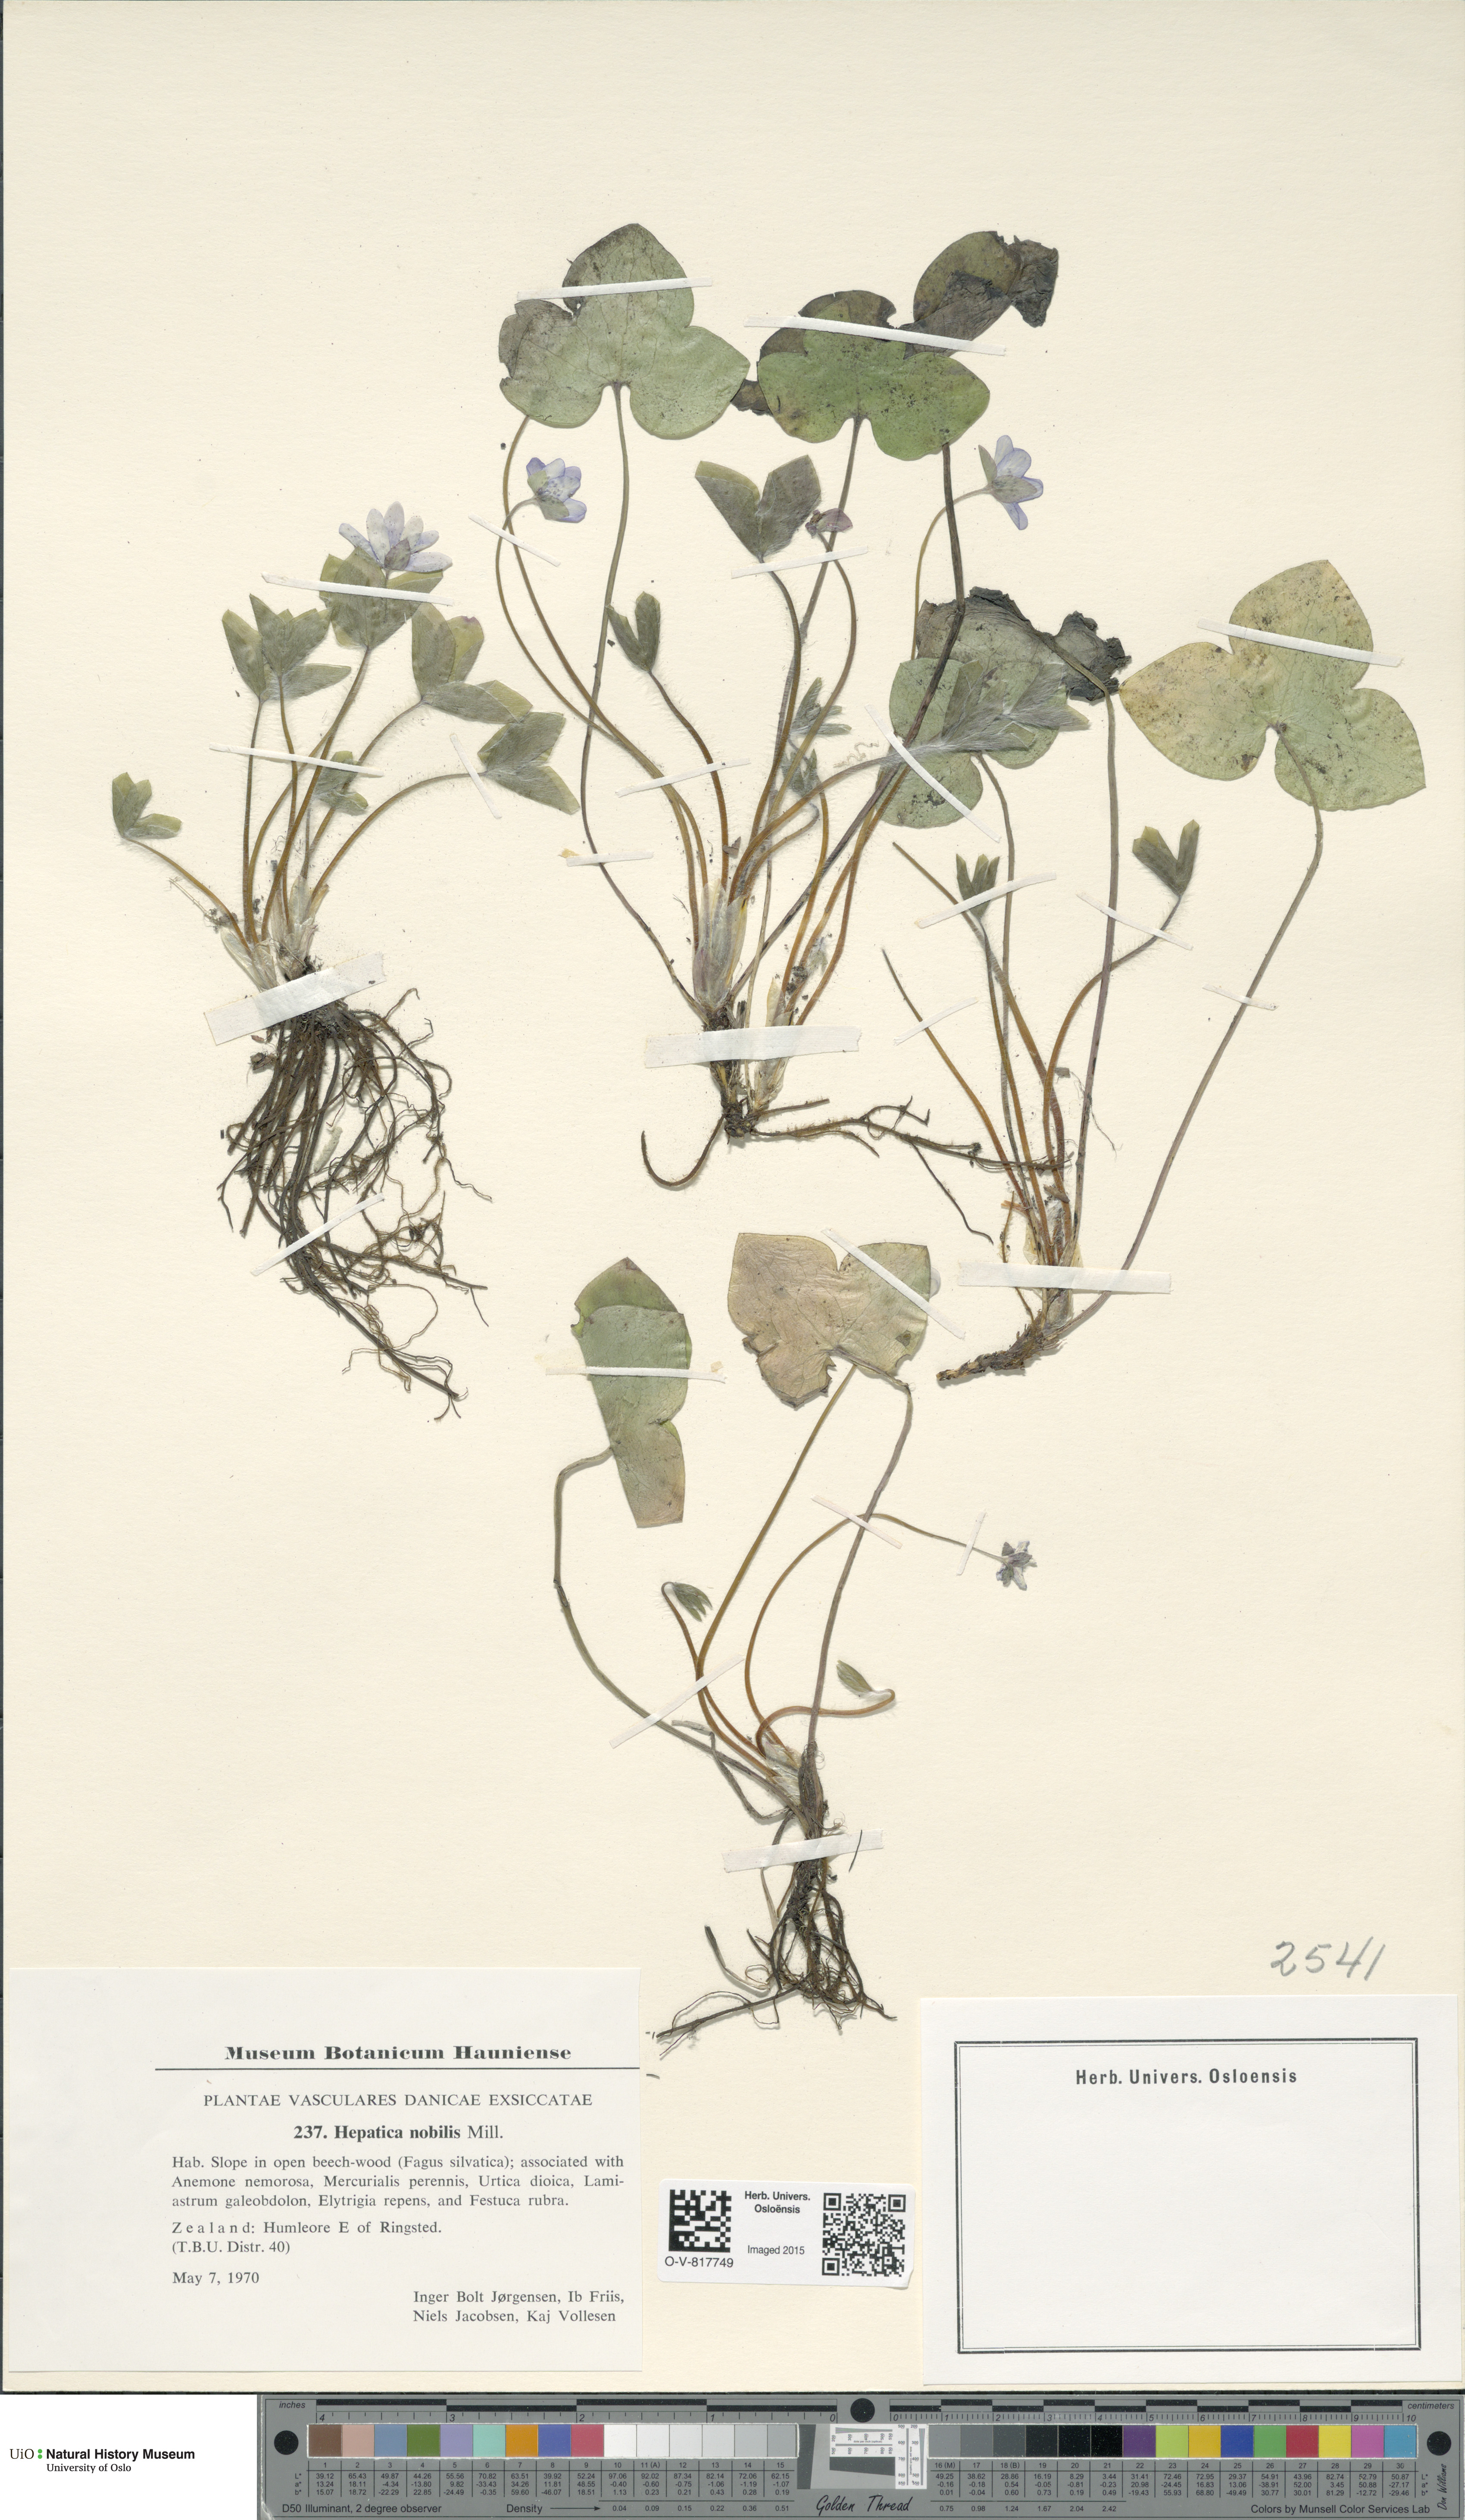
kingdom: Plantae
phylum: Tracheophyta
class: Magnoliopsida
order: Ranunculales
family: Ranunculaceae
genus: Hepatica
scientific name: Hepatica nobilis
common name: Liverleaf
